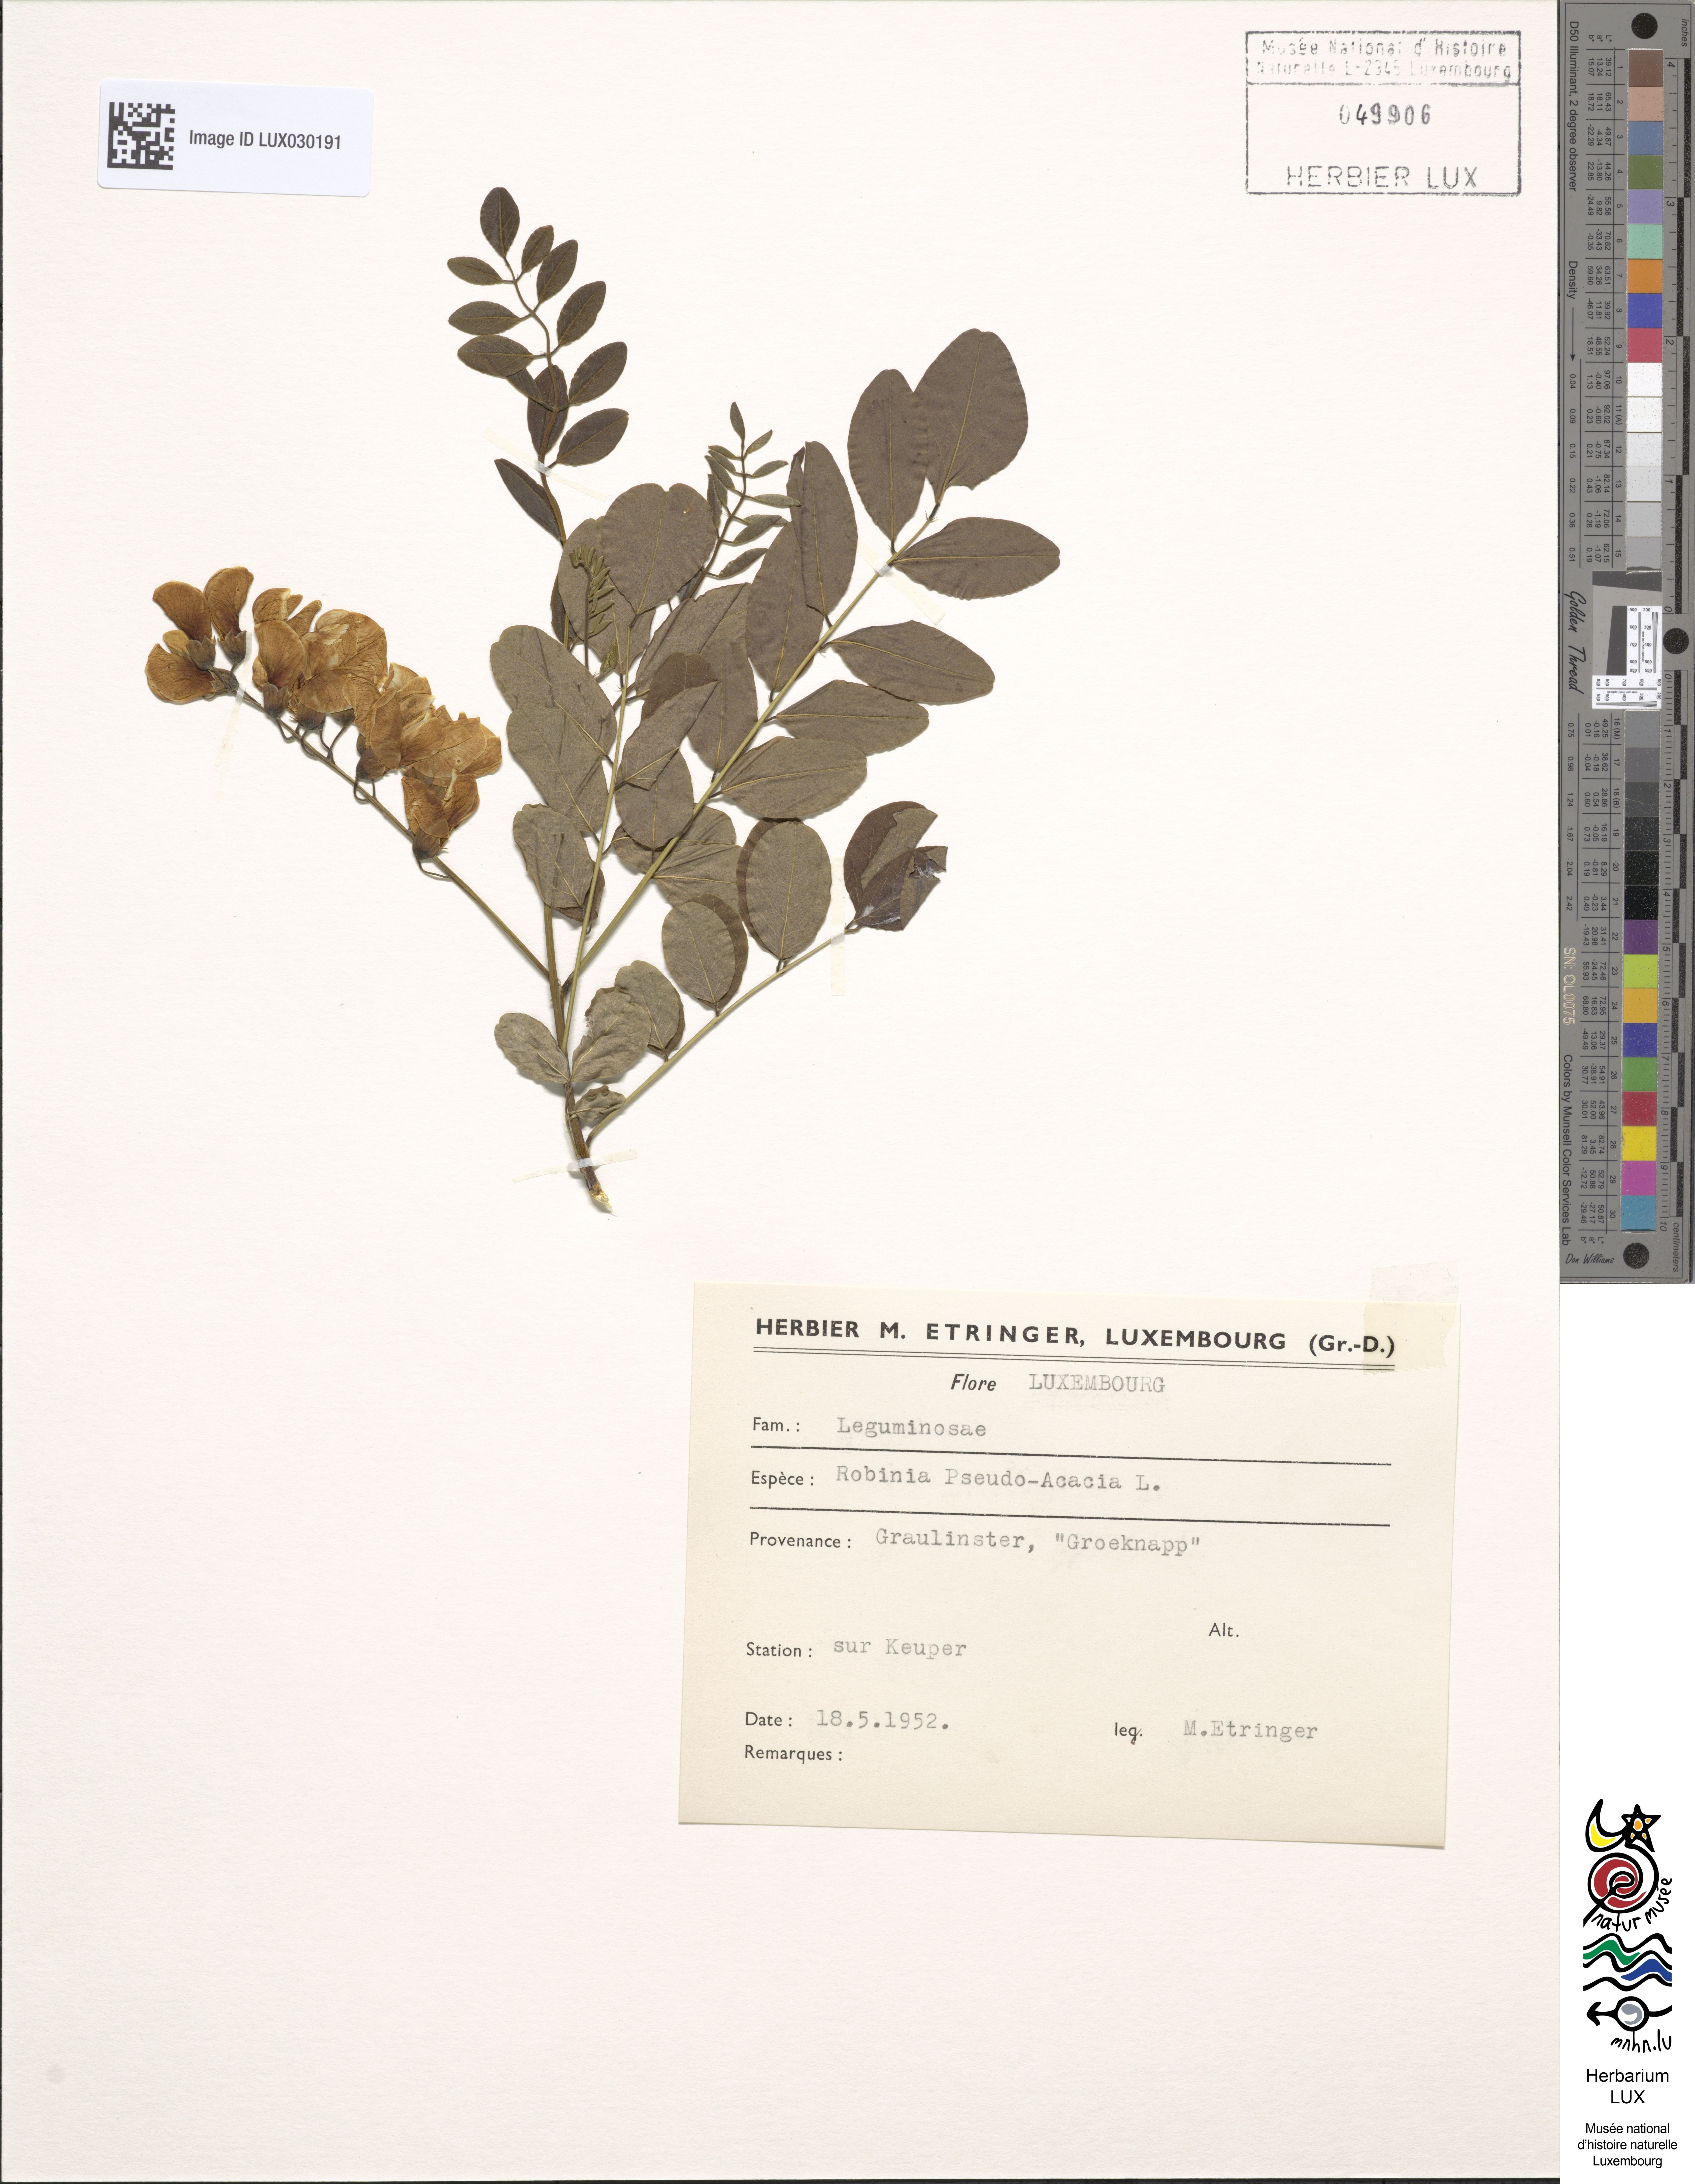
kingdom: Plantae
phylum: Tracheophyta
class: Magnoliopsida
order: Fabales
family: Fabaceae
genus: Robinia
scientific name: Robinia pseudoacacia
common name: Black locust
